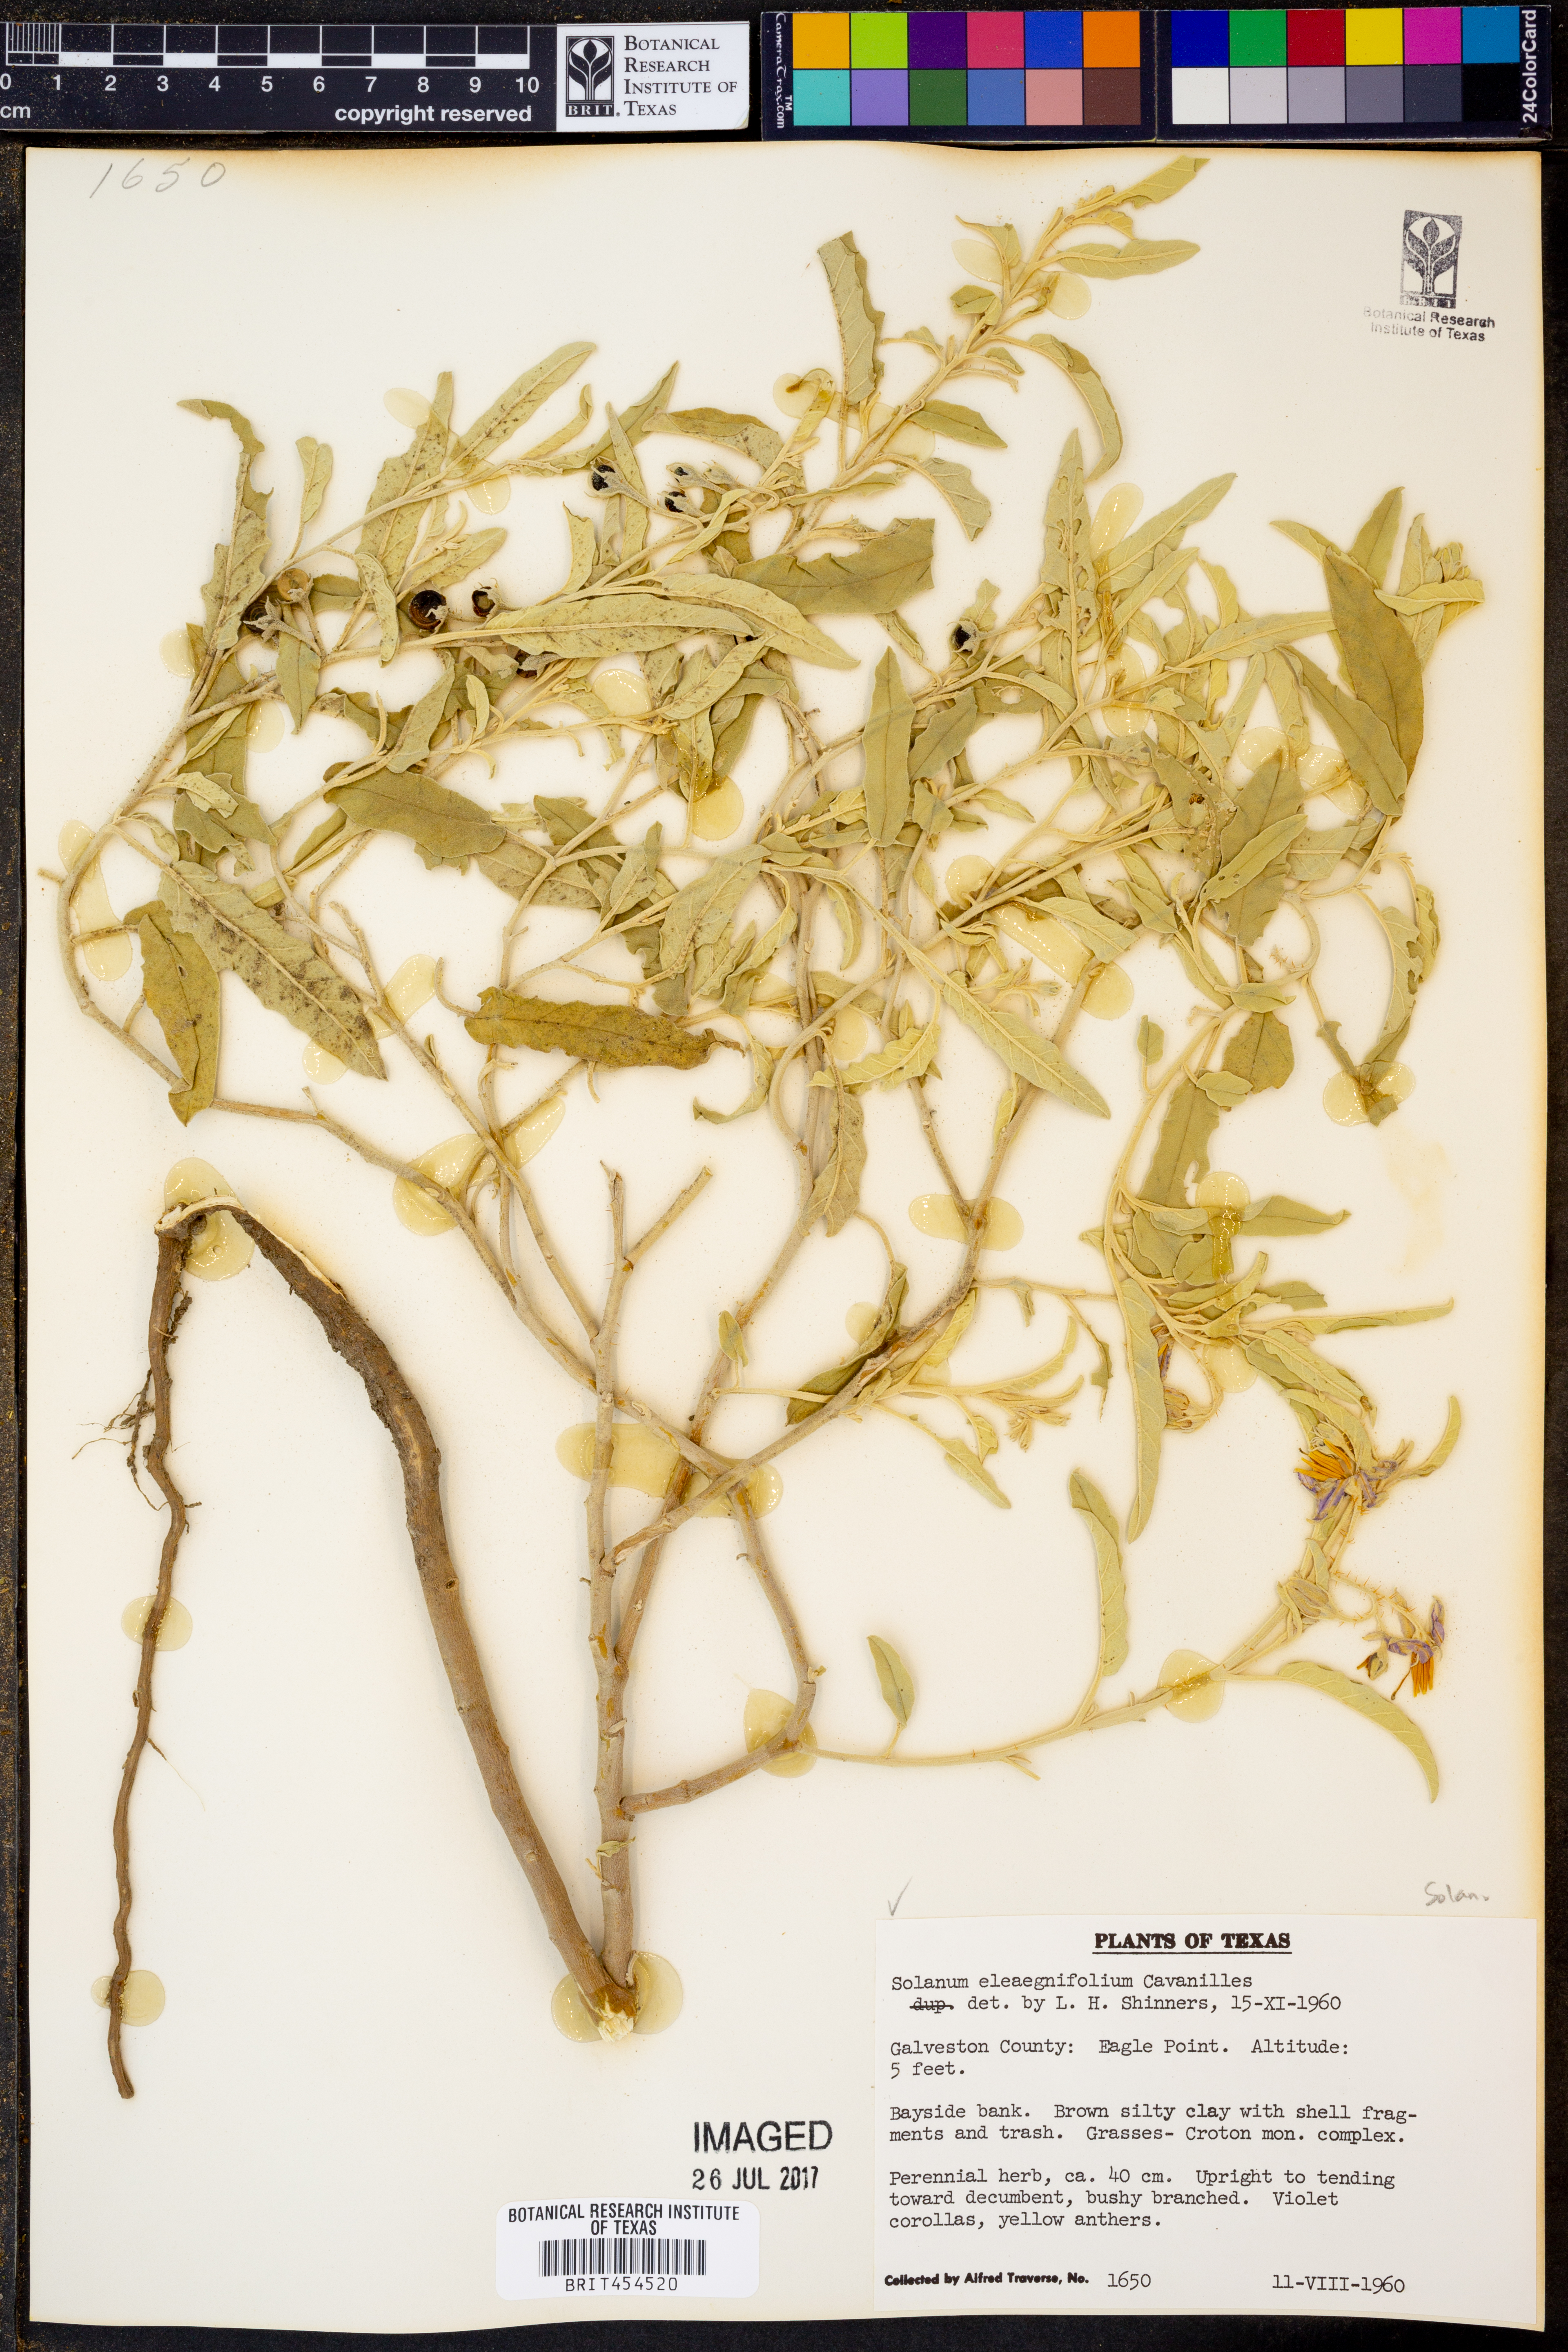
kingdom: Plantae
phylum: Tracheophyta
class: Magnoliopsida
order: Solanales
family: Solanaceae
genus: Solanum
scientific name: Solanum elaeagnifolium
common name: Silverleaf nightshade
